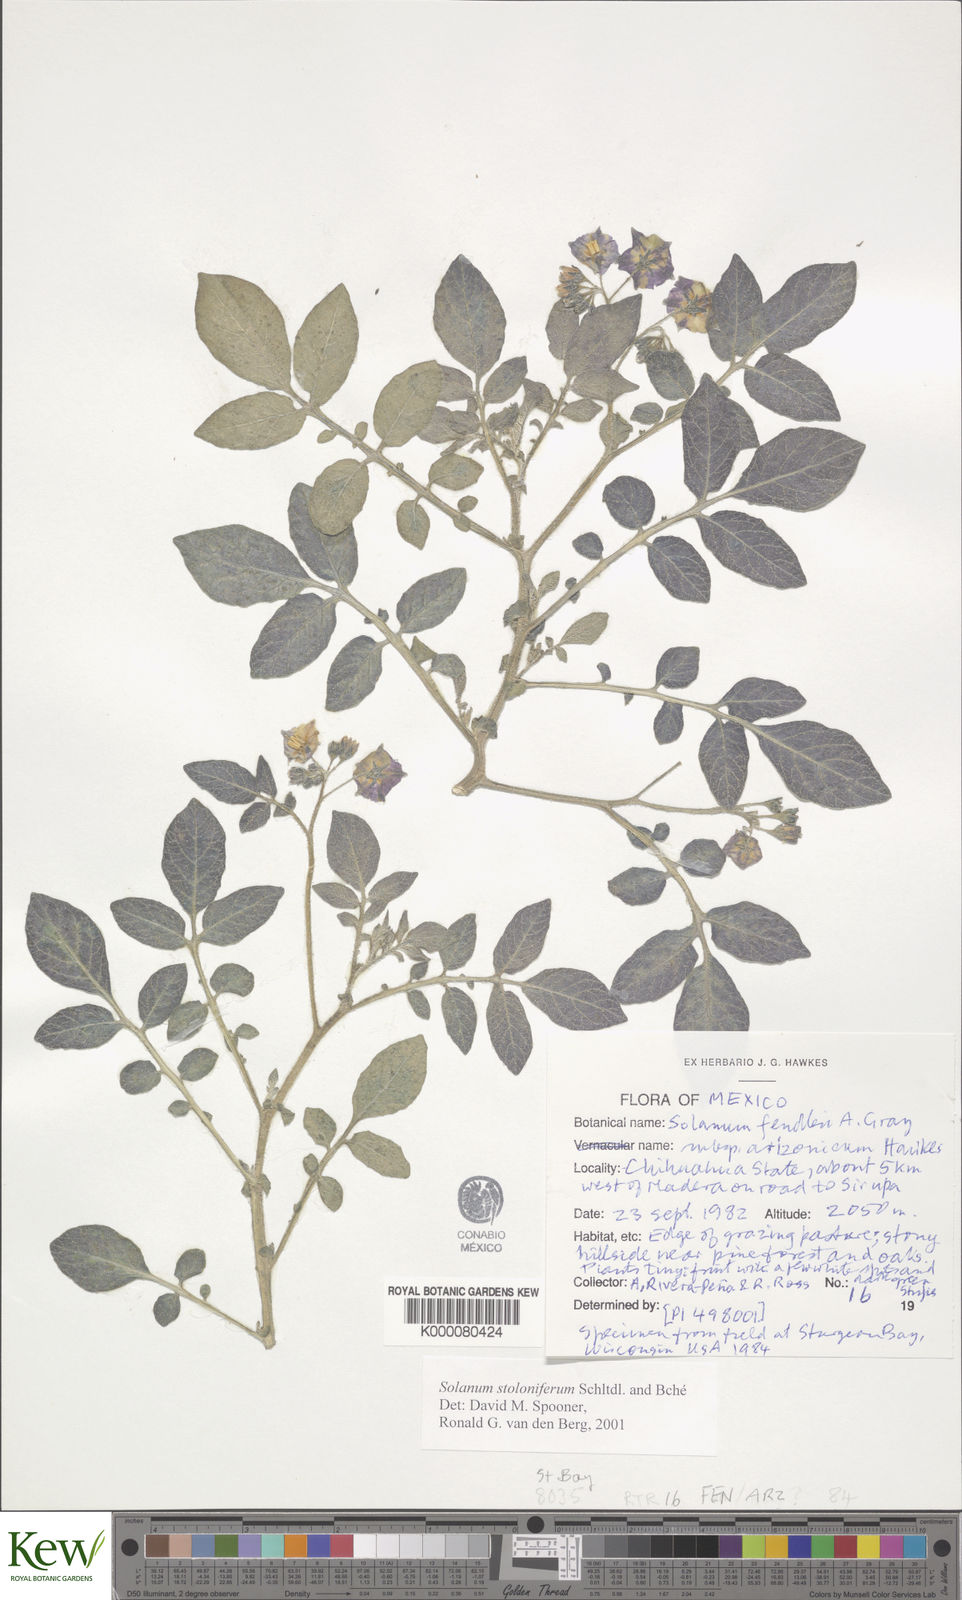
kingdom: Plantae
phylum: Tracheophyta
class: Magnoliopsida
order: Solanales
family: Solanaceae
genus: Solanum
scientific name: Solanum stoloniferum
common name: Fendler's nighshade
